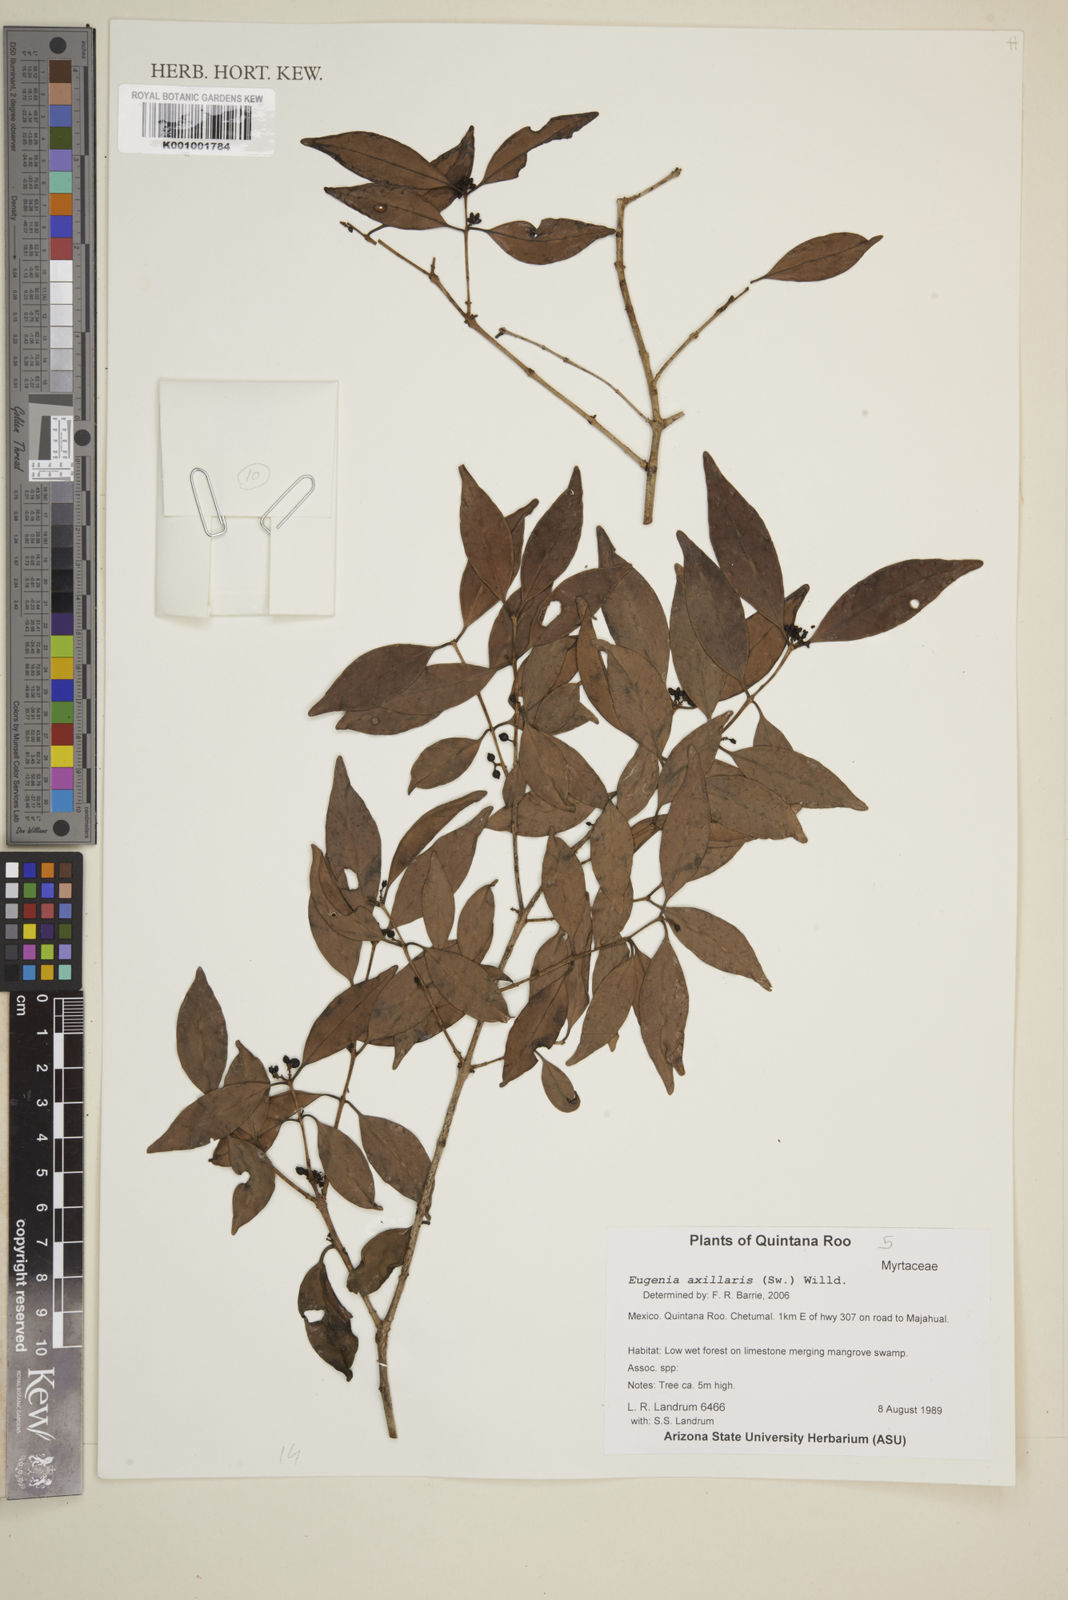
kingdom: Plantae
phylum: Tracheophyta
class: Magnoliopsida
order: Myrtales
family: Myrtaceae
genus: Eugenia
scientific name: Eugenia axillaris
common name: Choaky berry
